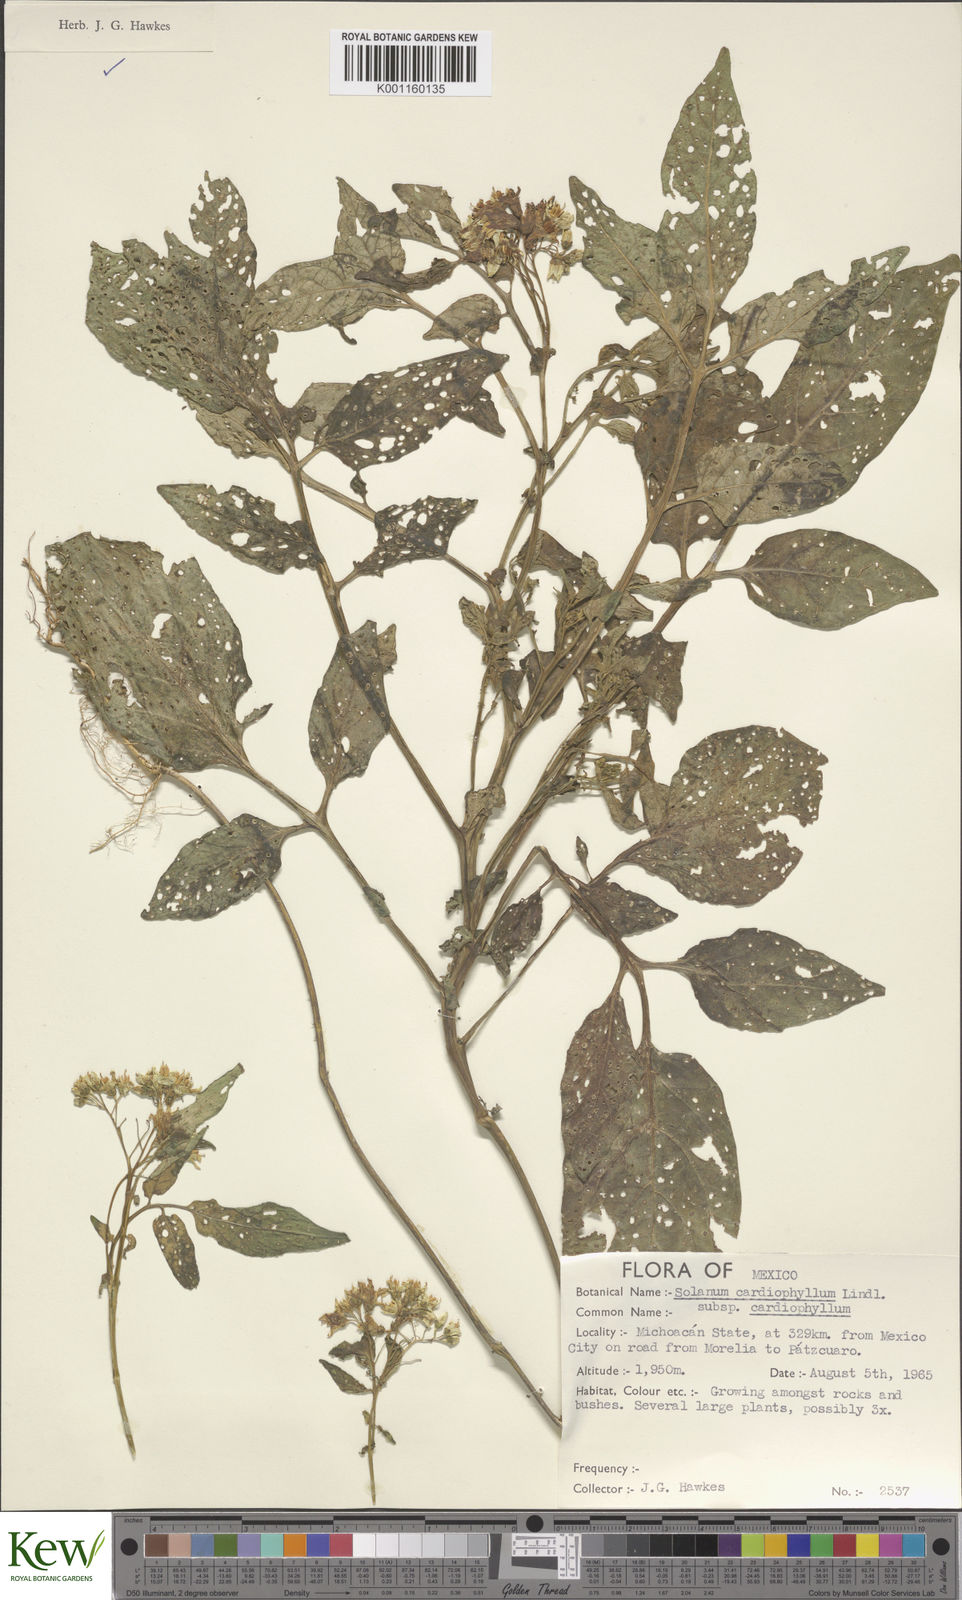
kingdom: Plantae
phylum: Tracheophyta
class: Magnoliopsida
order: Solanales
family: Solanaceae
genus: Solanum
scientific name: Solanum cardiophyllum
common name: Heartleaf horsenettle
